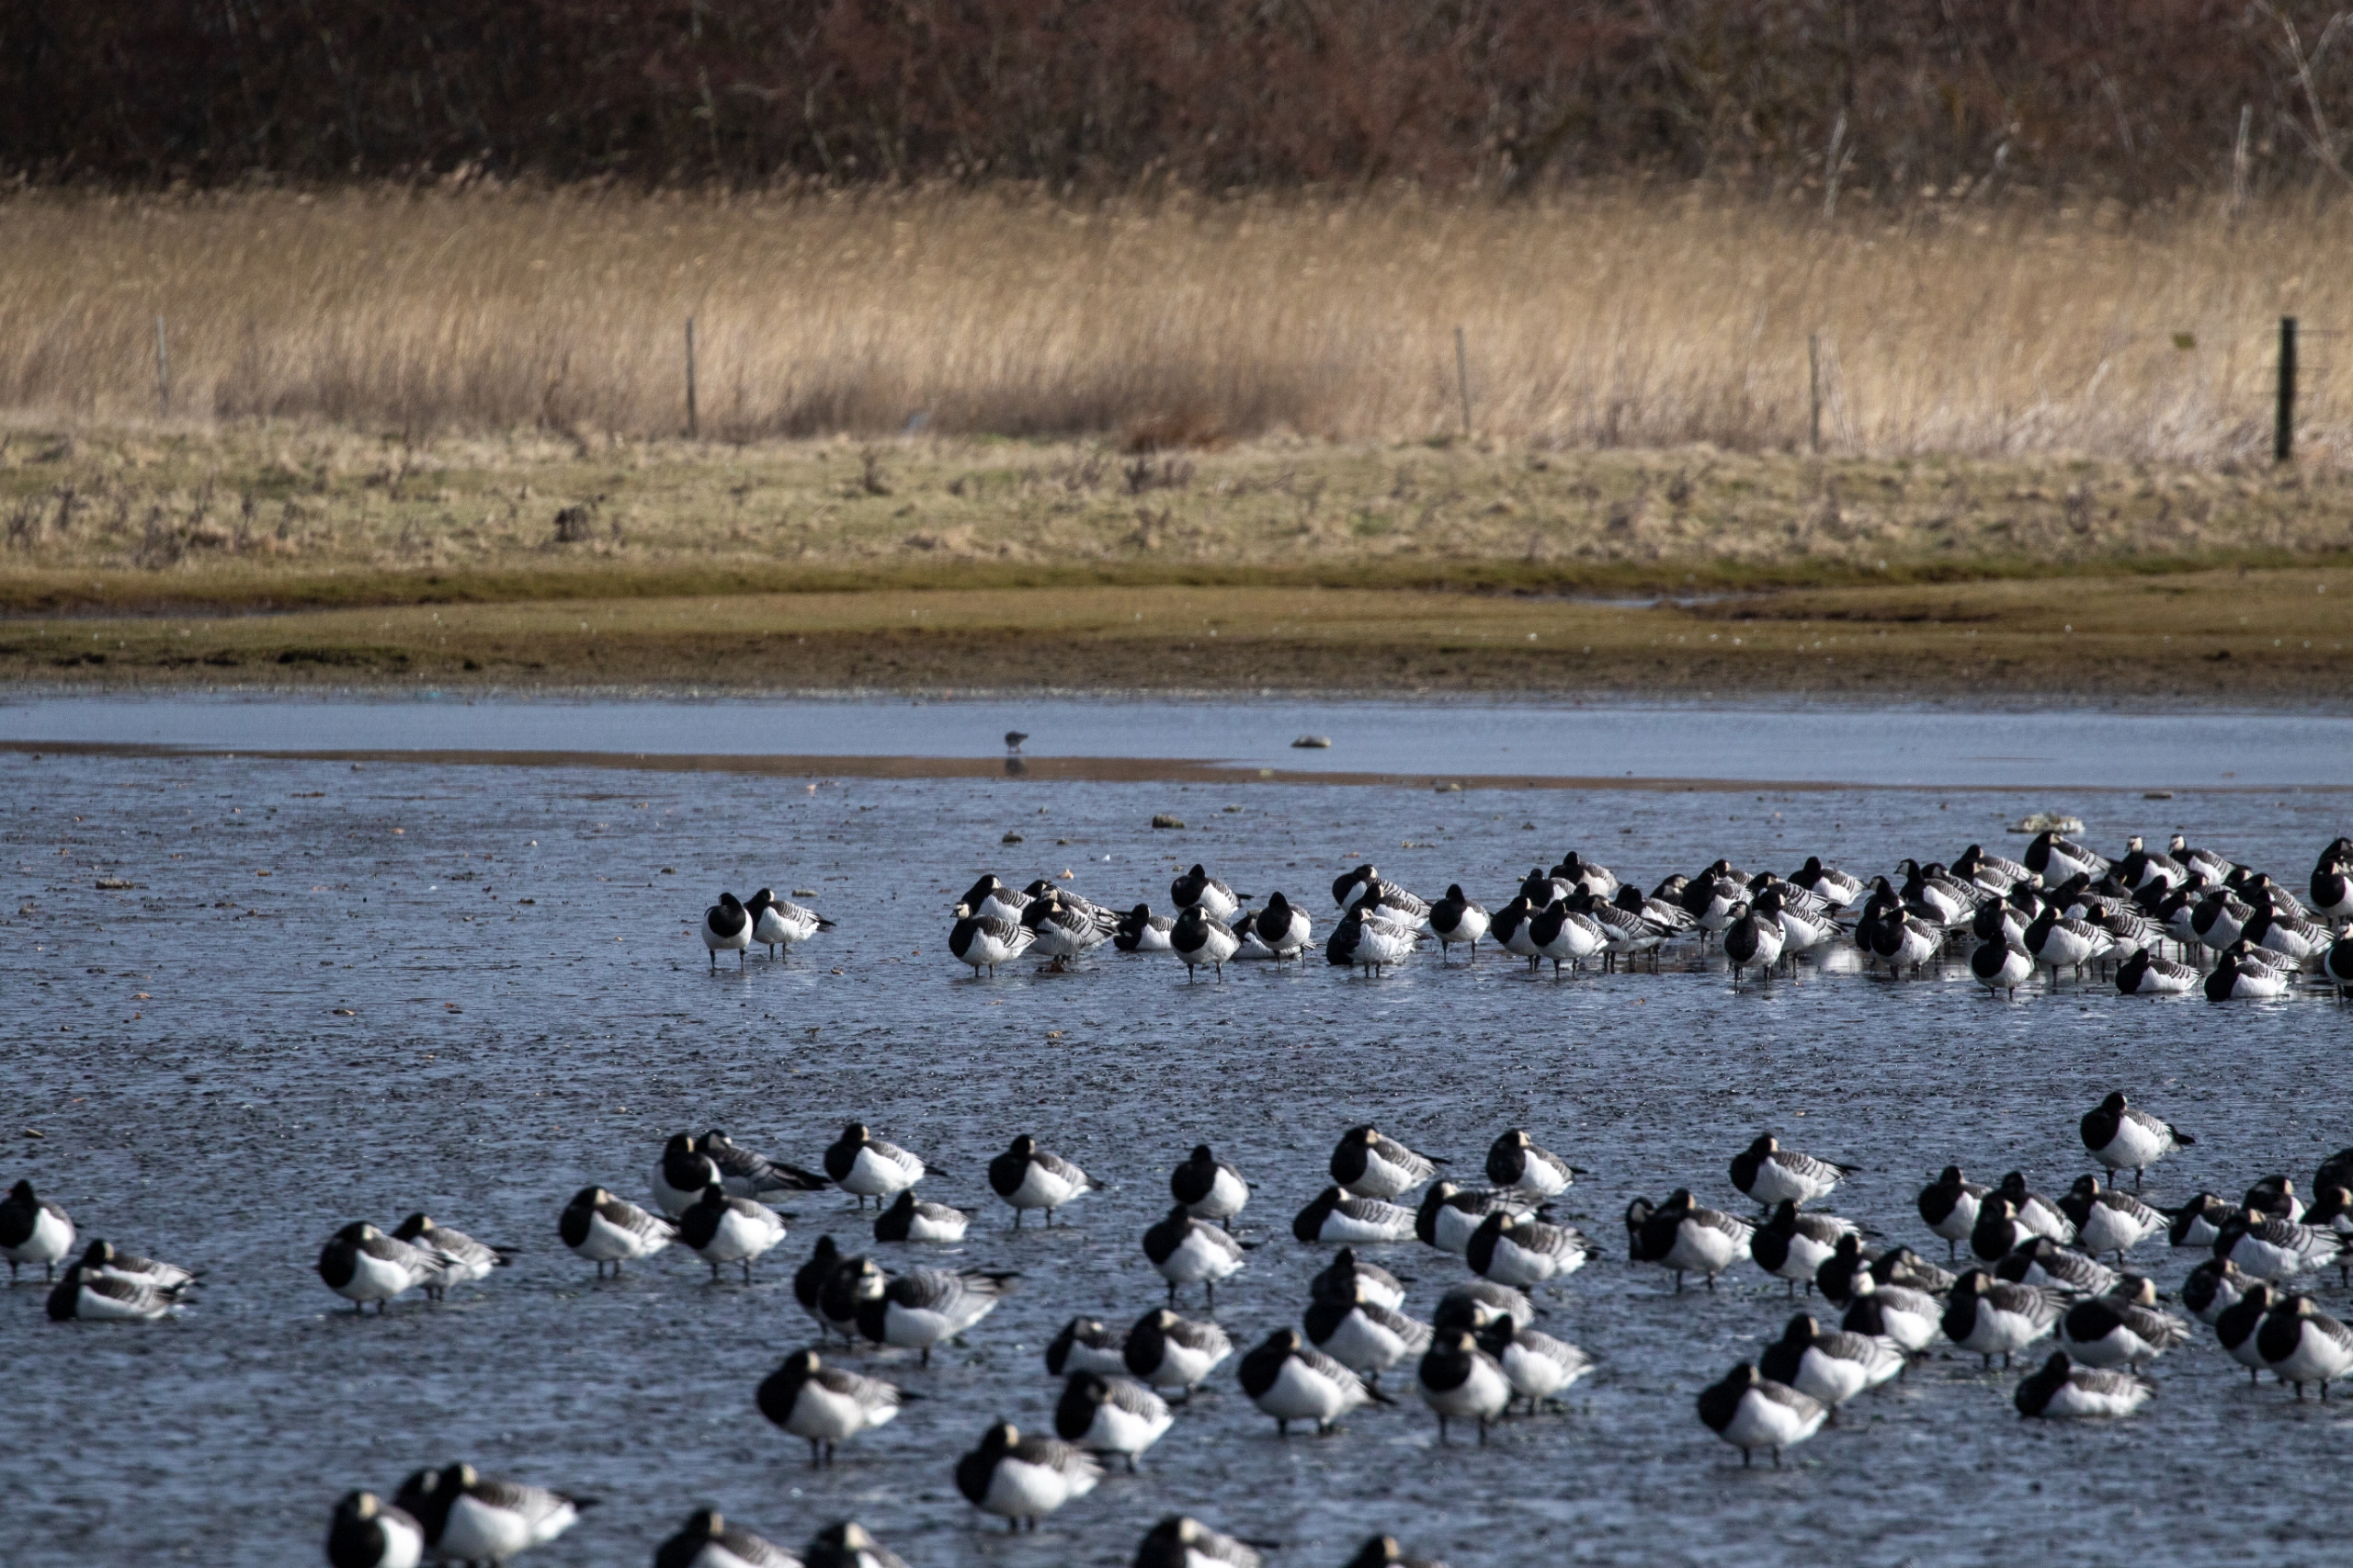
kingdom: Animalia
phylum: Chordata
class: Aves
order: Anseriformes
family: Anatidae
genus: Branta
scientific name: Branta leucopsis
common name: Bramgås
